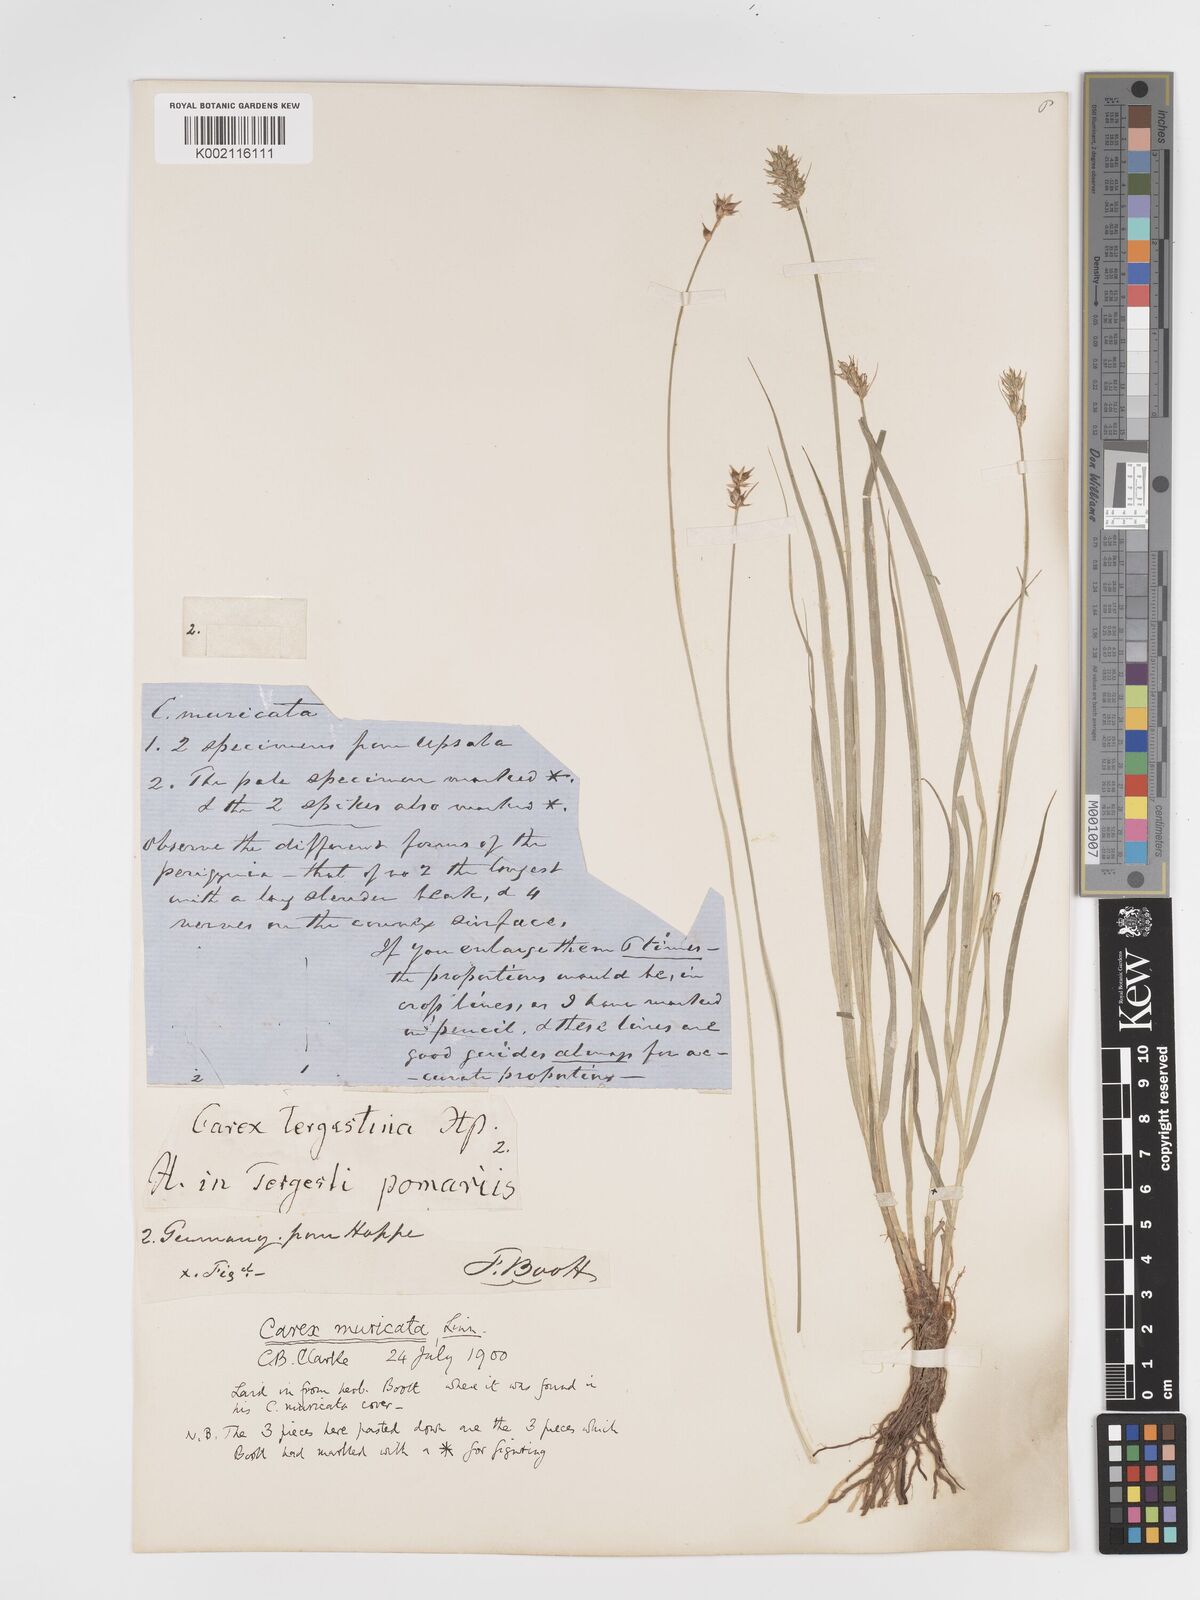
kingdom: Plantae
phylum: Tracheophyta
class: Liliopsida
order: Poales
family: Cyperaceae
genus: Carex
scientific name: Carex spicata
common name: Spiked sedge
